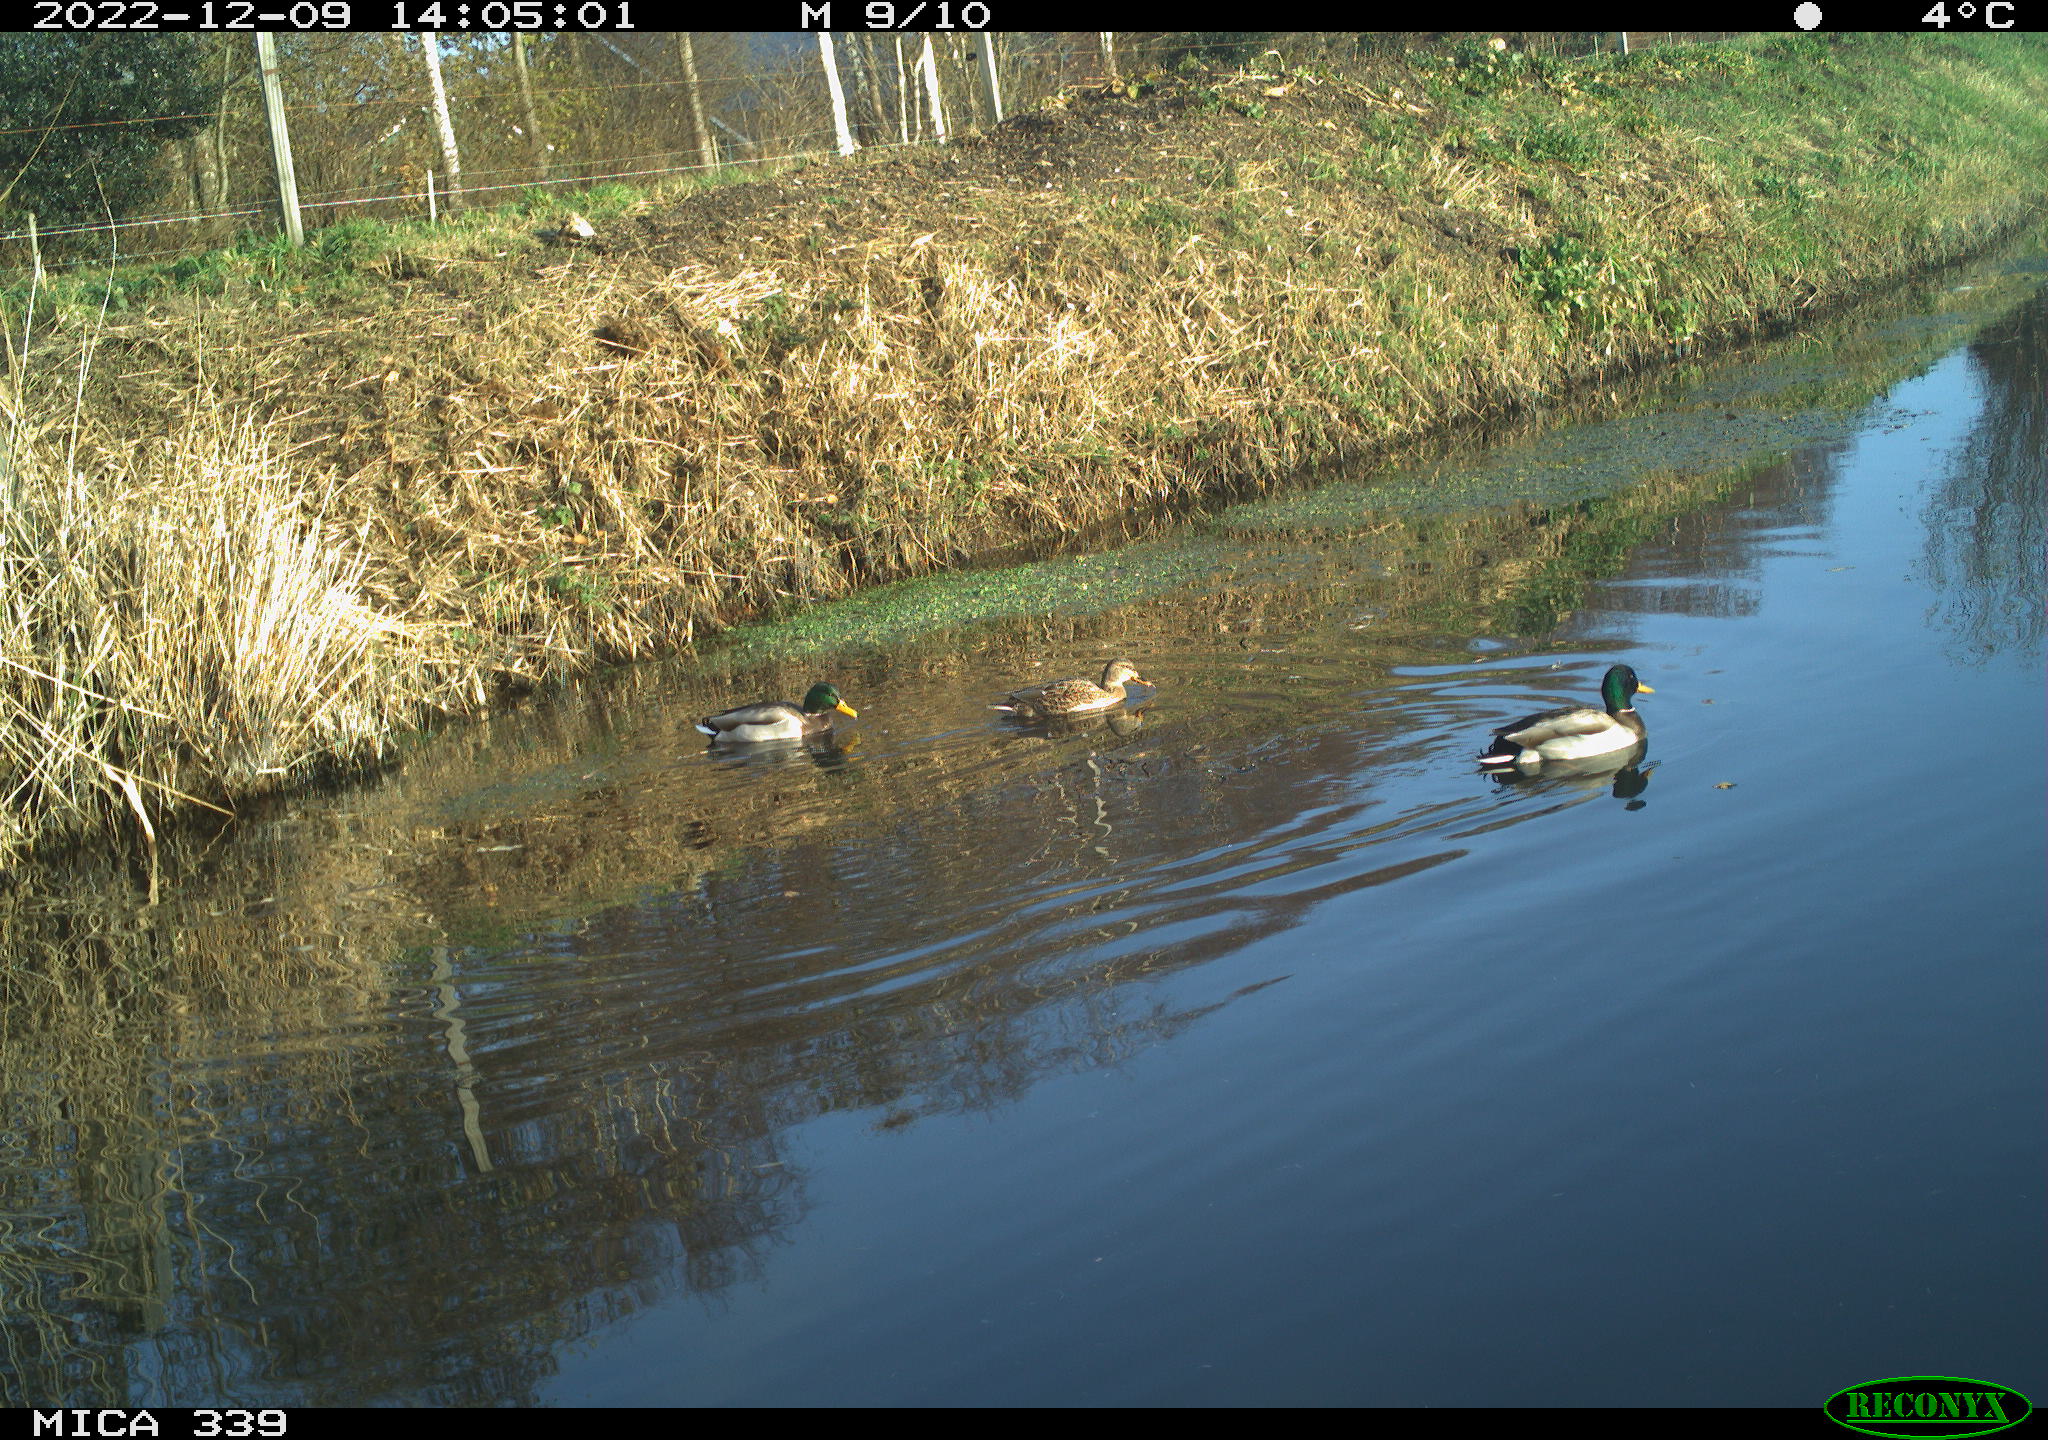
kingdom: Animalia
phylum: Chordata
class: Aves
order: Anseriformes
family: Anatidae
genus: Anas
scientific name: Anas
